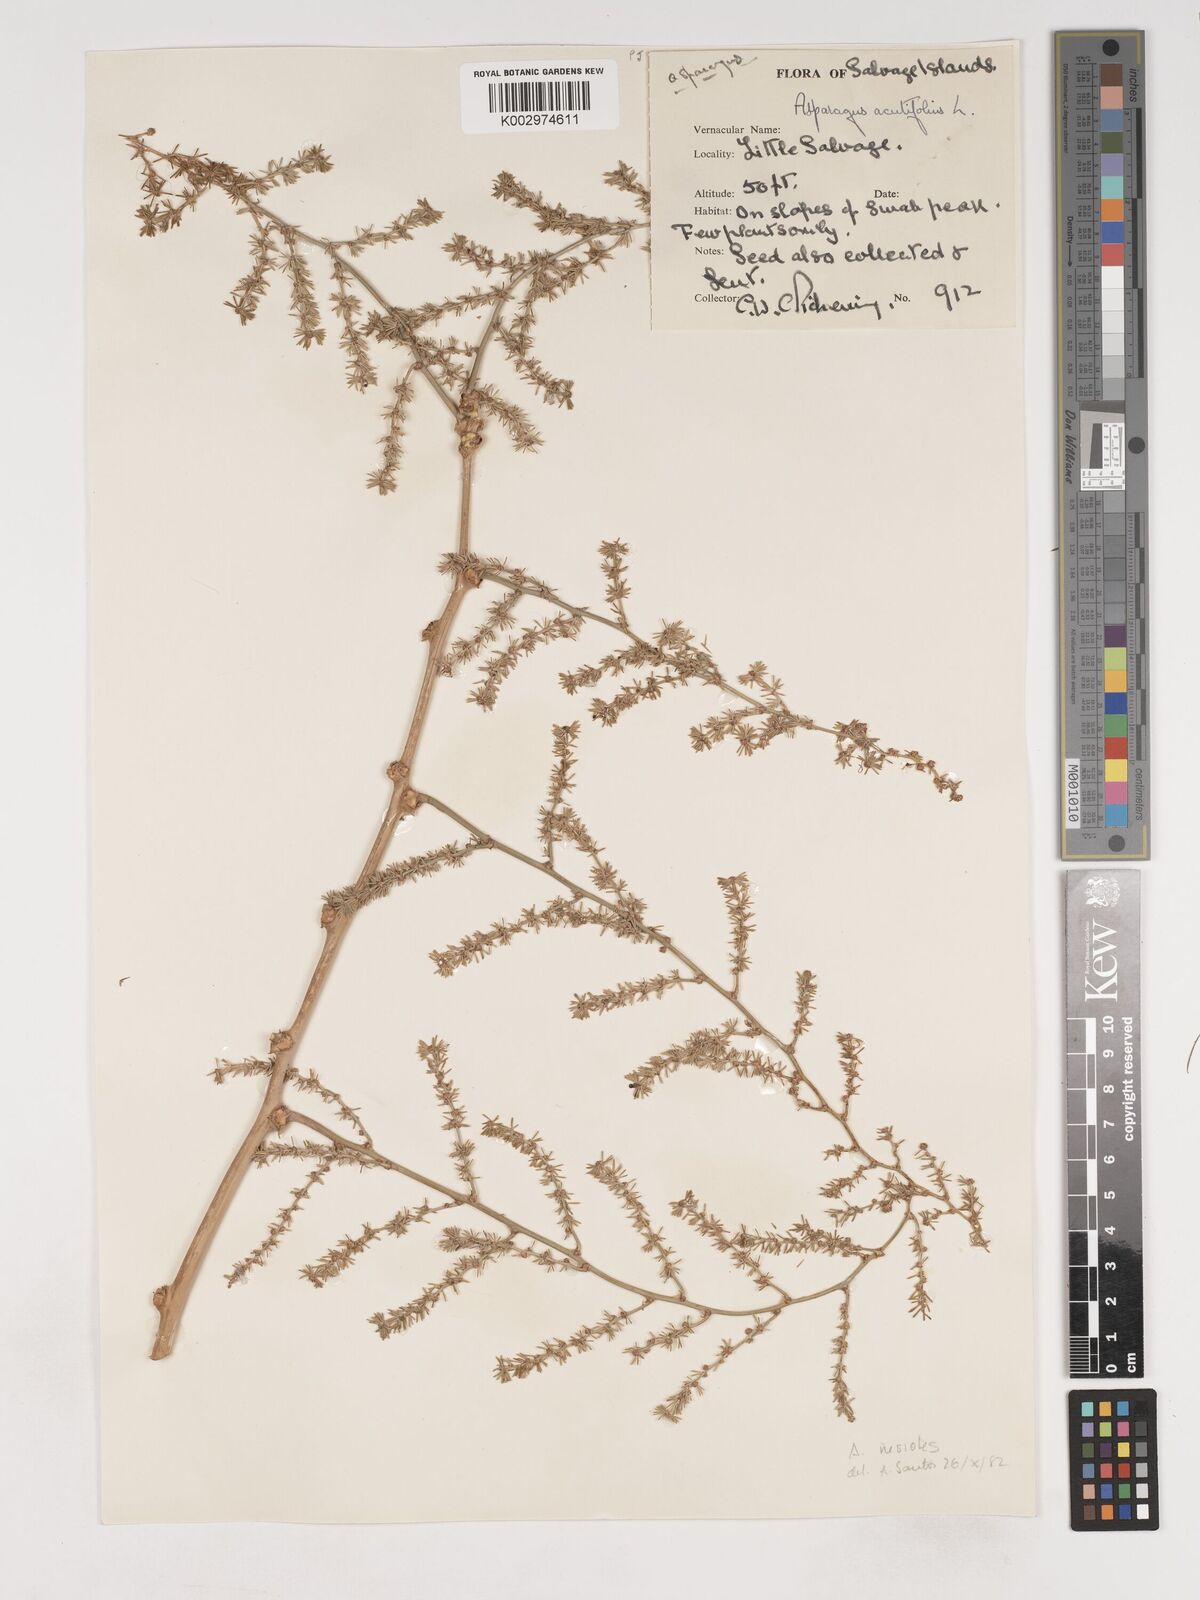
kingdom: Plantae
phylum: Tracheophyta
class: Liliopsida
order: Asparagales
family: Asparagaceae
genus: Asparagus
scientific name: Asparagus acutifolius
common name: Wild asparagus
